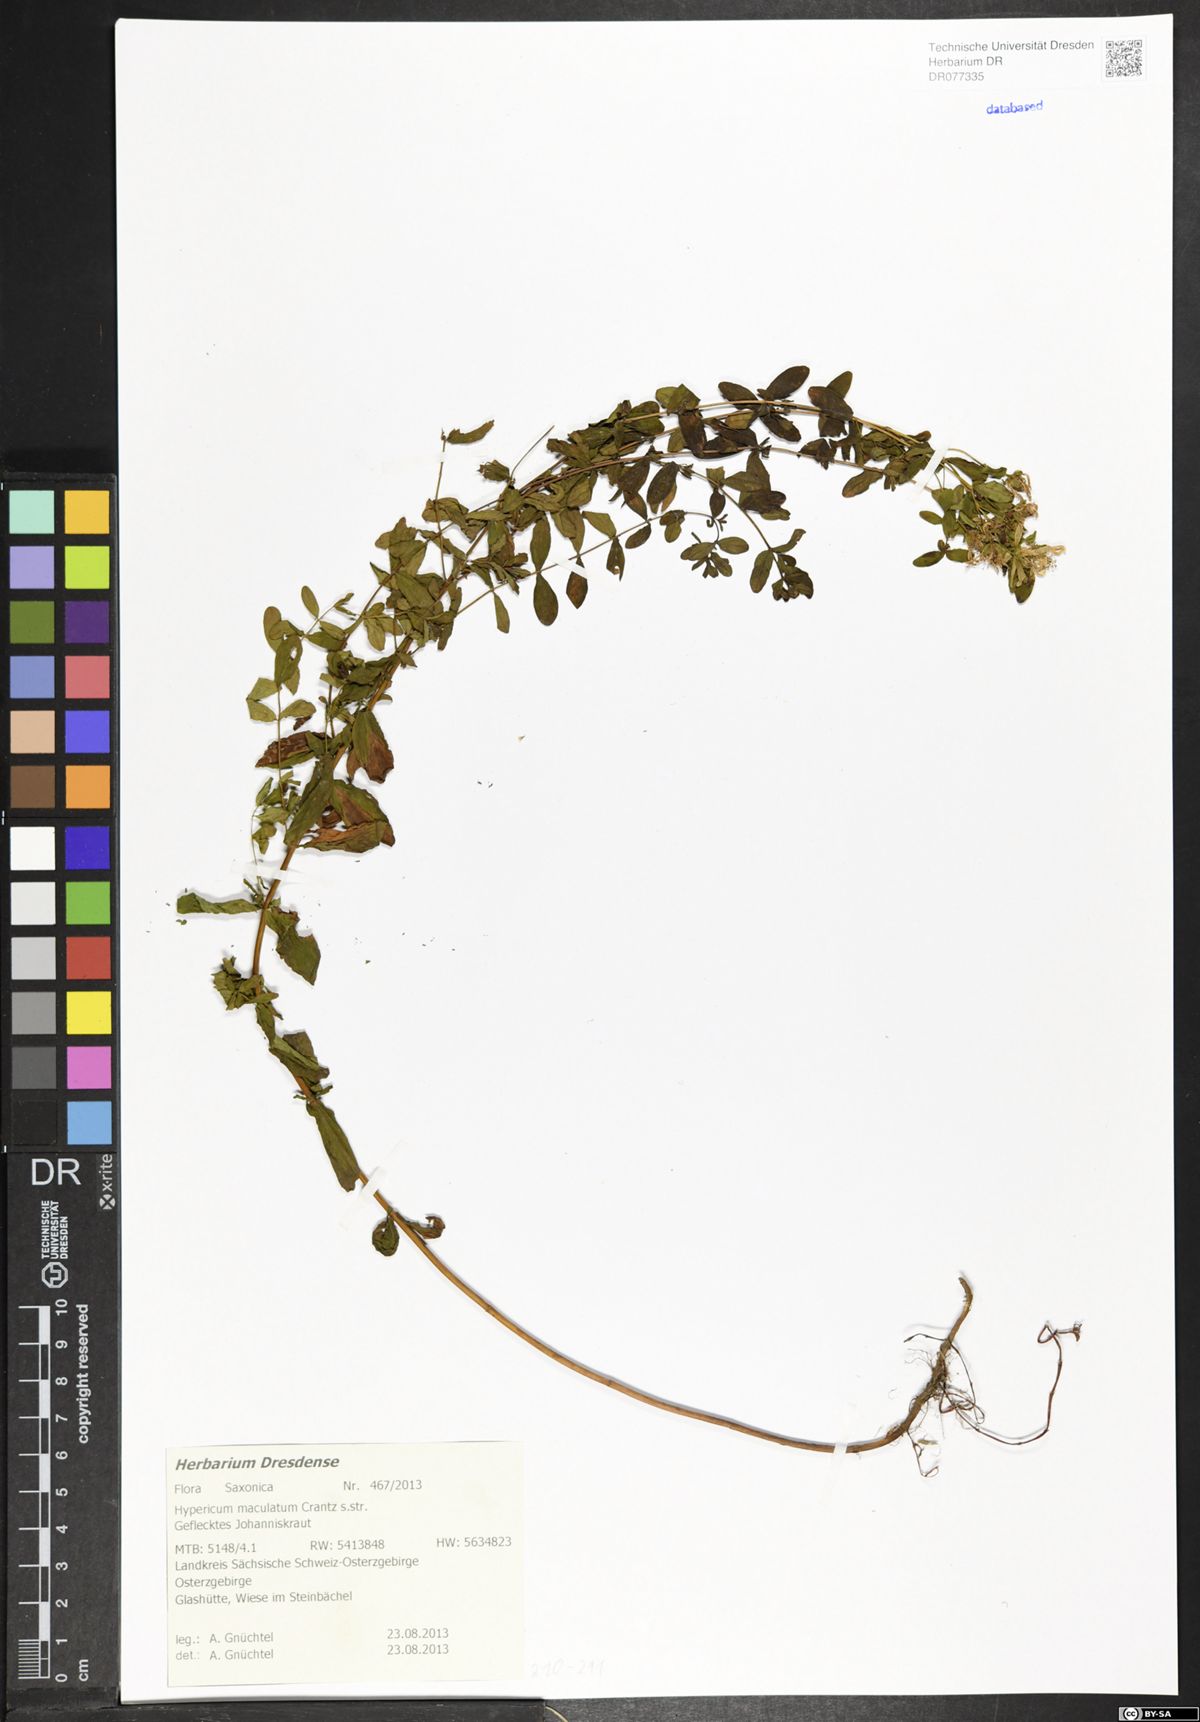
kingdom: Plantae
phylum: Tracheophyta
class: Magnoliopsida
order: Malpighiales
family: Hypericaceae
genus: Hypericum
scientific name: Hypericum maculatum
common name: Imperforate st. john's-wort
